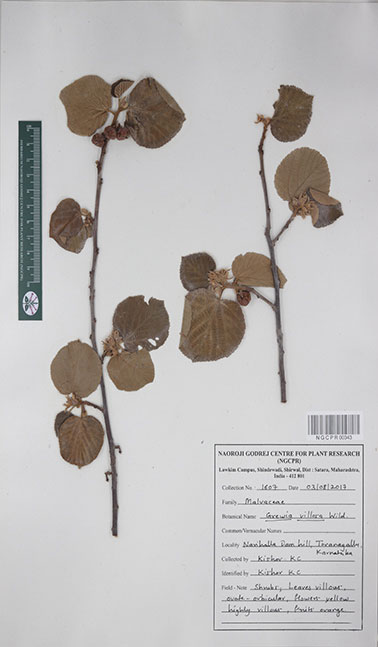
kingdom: Plantae
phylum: Tracheophyta
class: Magnoliopsida
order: Malvales
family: Malvaceae
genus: Grewia
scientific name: Grewia villosa
